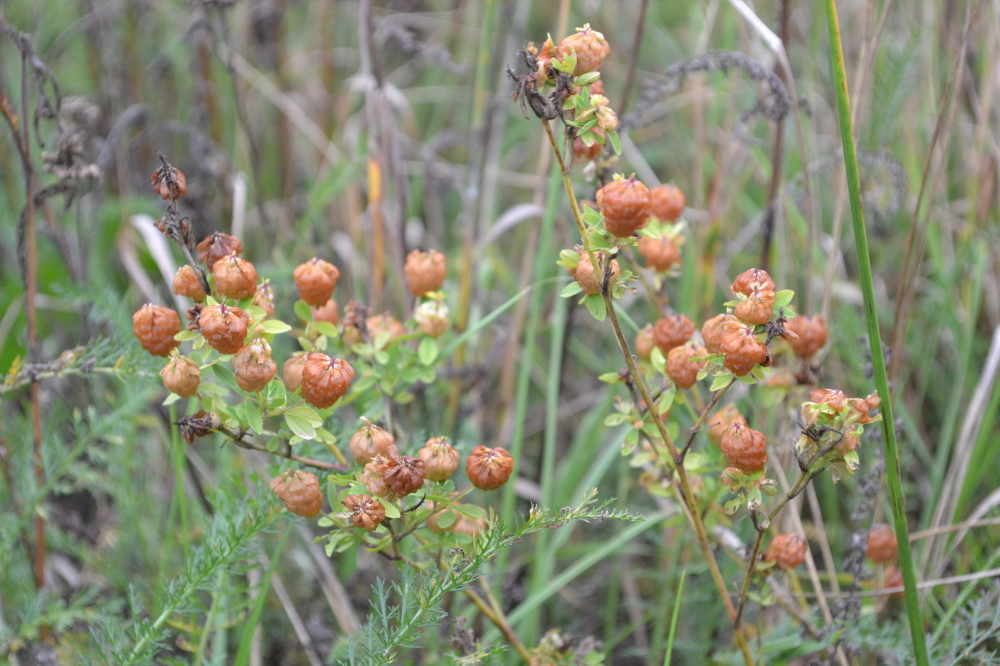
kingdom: Plantae
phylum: Tracheophyta
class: Magnoliopsida
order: Fabales
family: Fabaceae
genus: Trifolium
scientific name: Trifolium aureum
